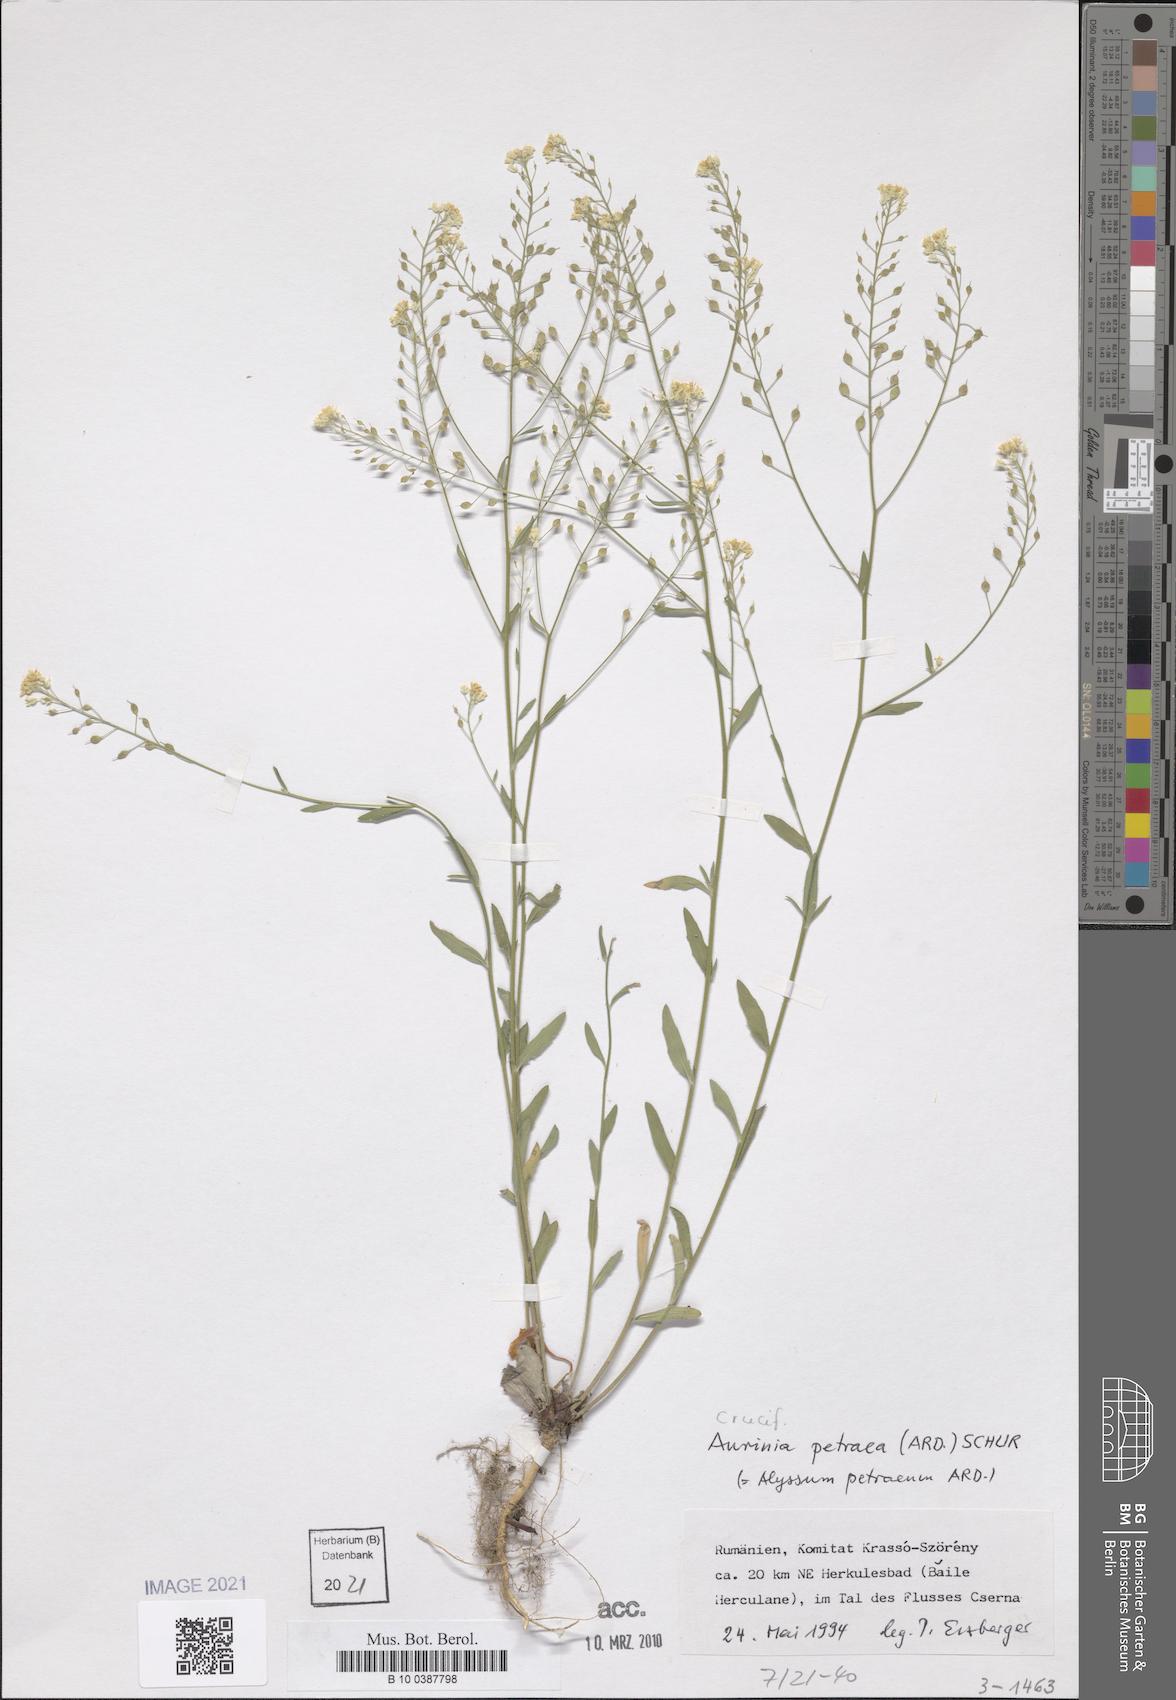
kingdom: Plantae
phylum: Tracheophyta
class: Magnoliopsida
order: Brassicales
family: Brassicaceae
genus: Aurinia
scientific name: Aurinia petraea
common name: Goldentuft
